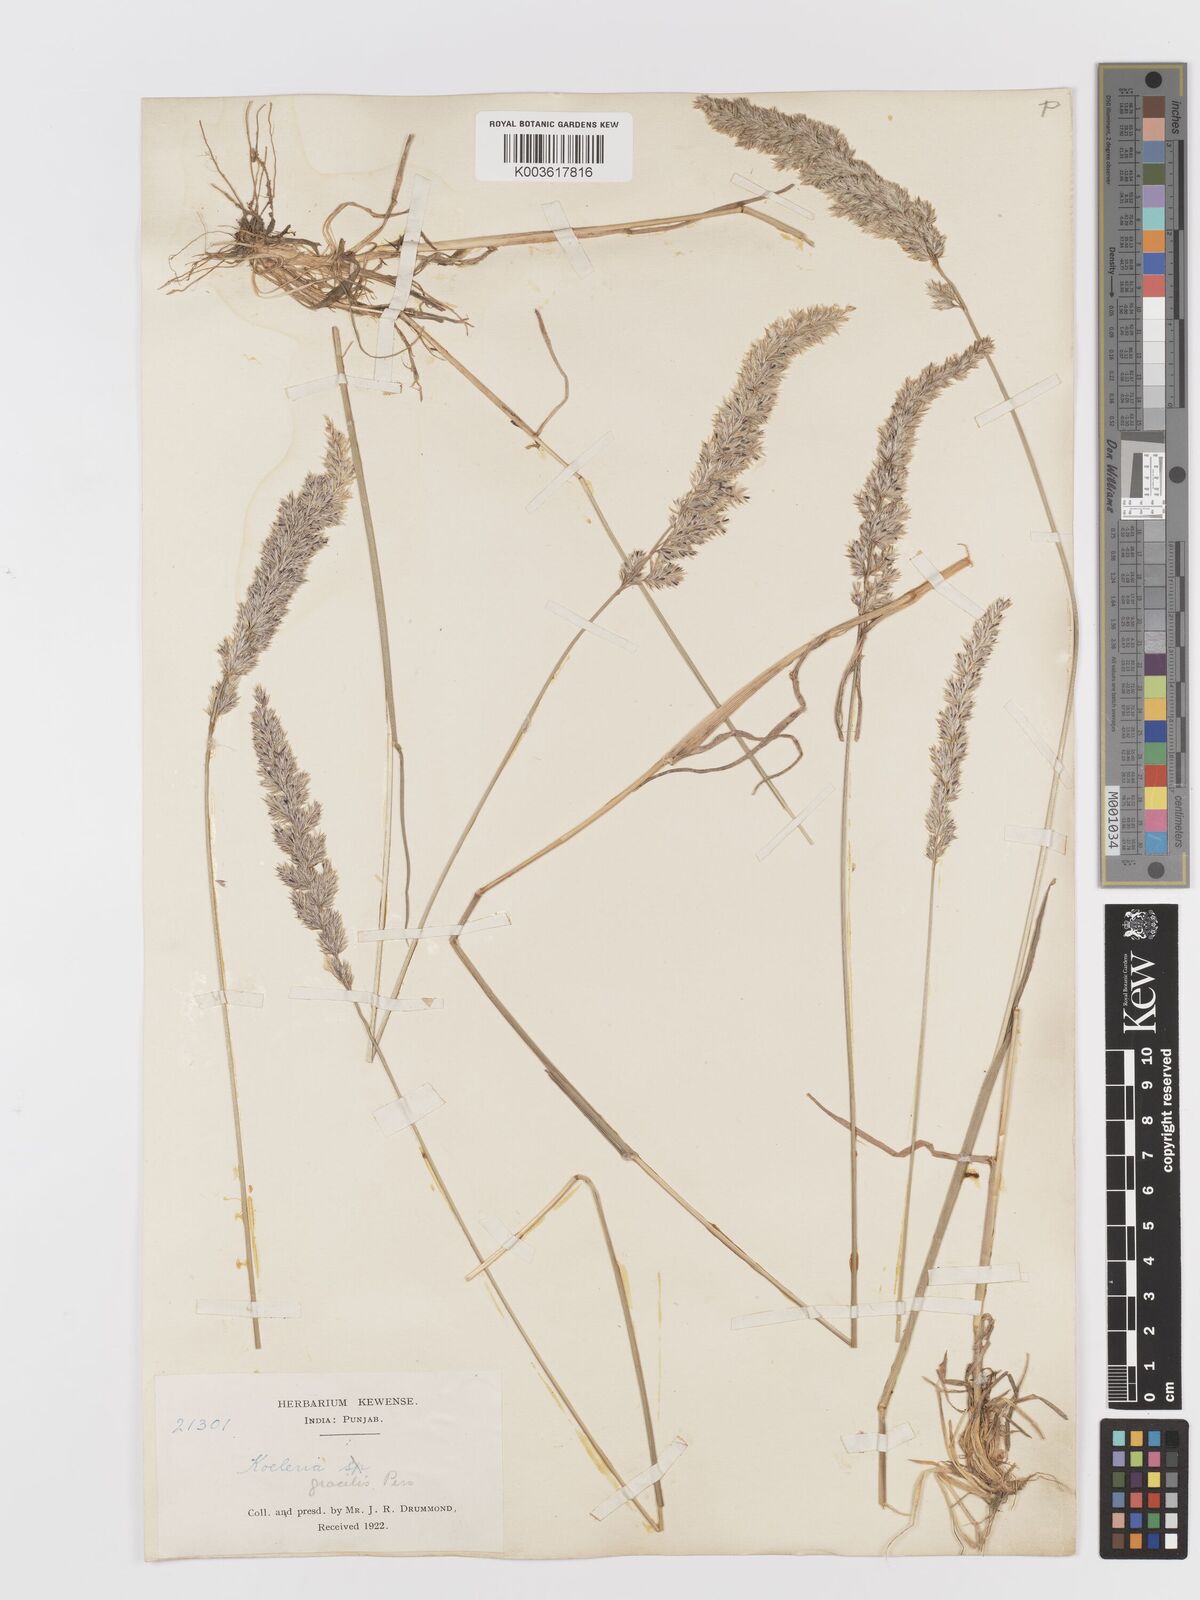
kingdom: Plantae
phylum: Tracheophyta
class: Liliopsida
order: Poales
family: Poaceae
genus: Koeleria
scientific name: Koeleria macrantha
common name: Crested hair-grass
